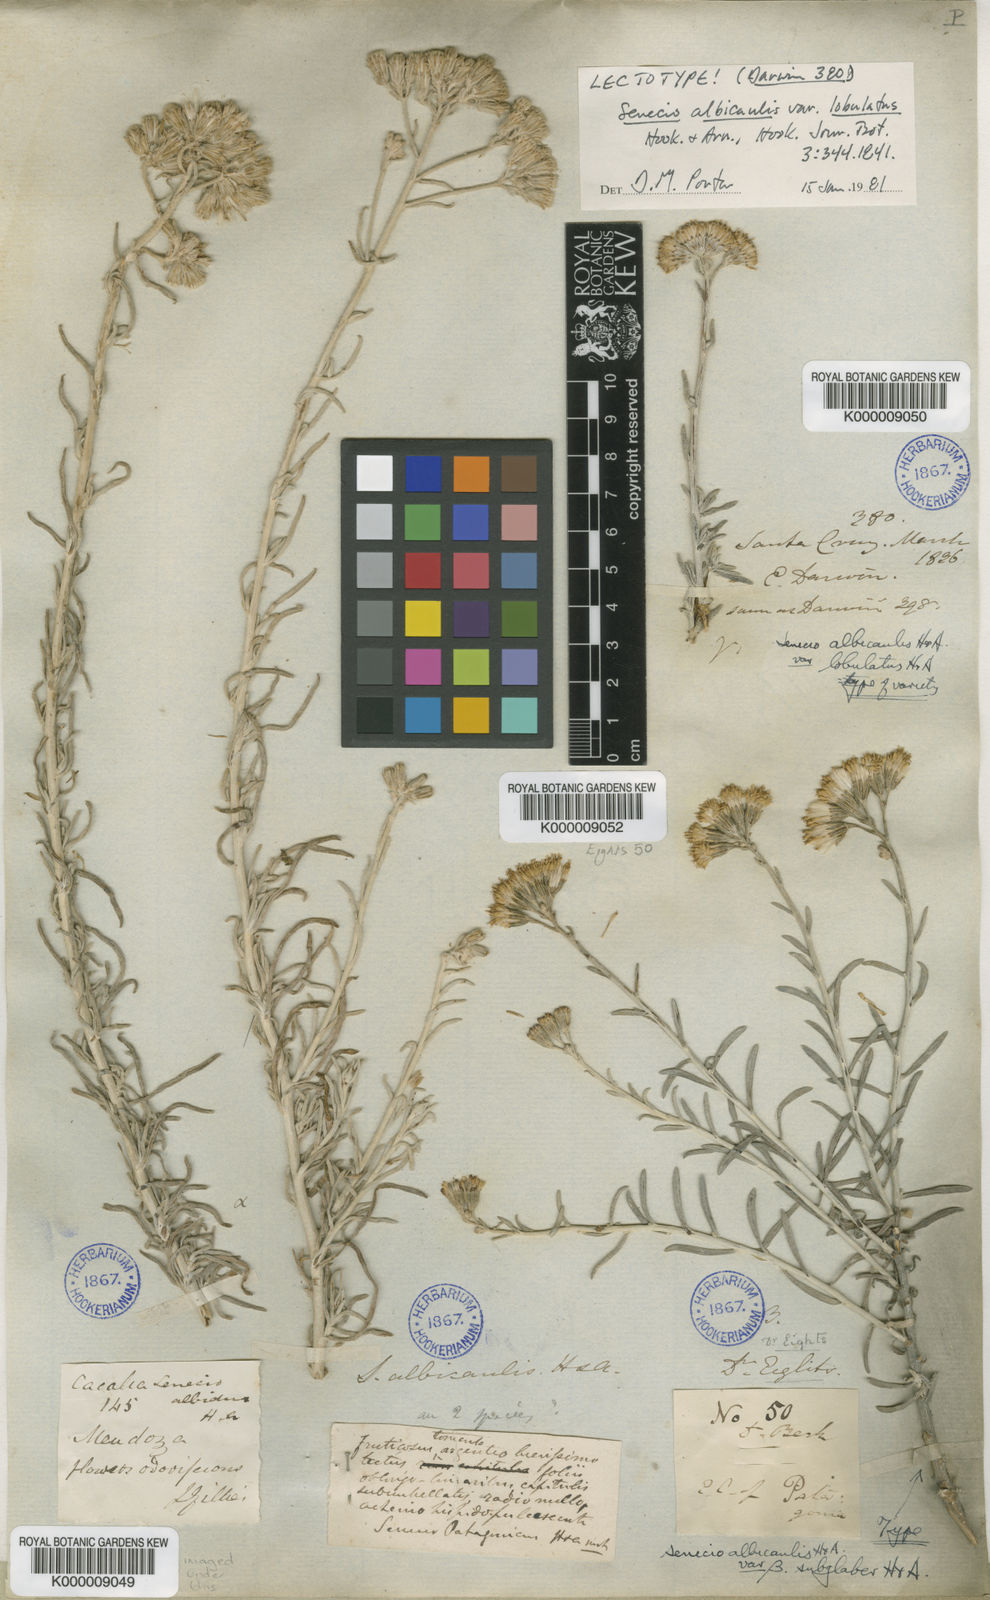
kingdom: Plantae
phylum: Tracheophyta
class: Magnoliopsida
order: Asterales
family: Asteraceae
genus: Senecio
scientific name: Senecio filaginoides
